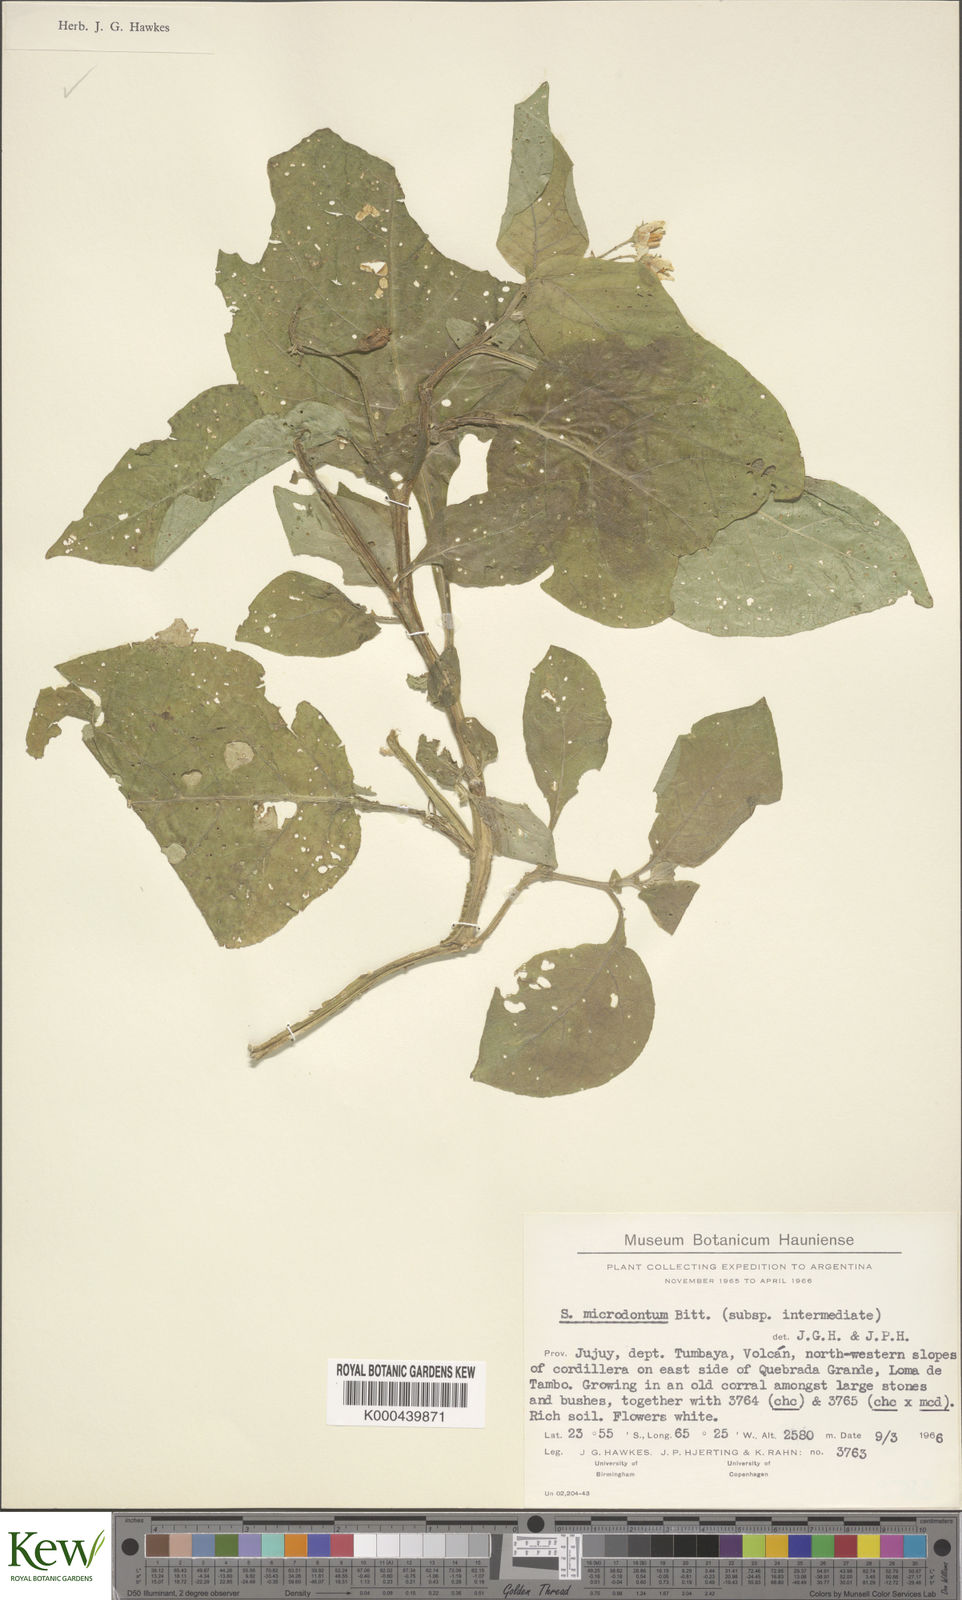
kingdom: Plantae
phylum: Tracheophyta
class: Magnoliopsida
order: Solanales
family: Solanaceae
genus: Solanum
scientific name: Solanum microdontum
